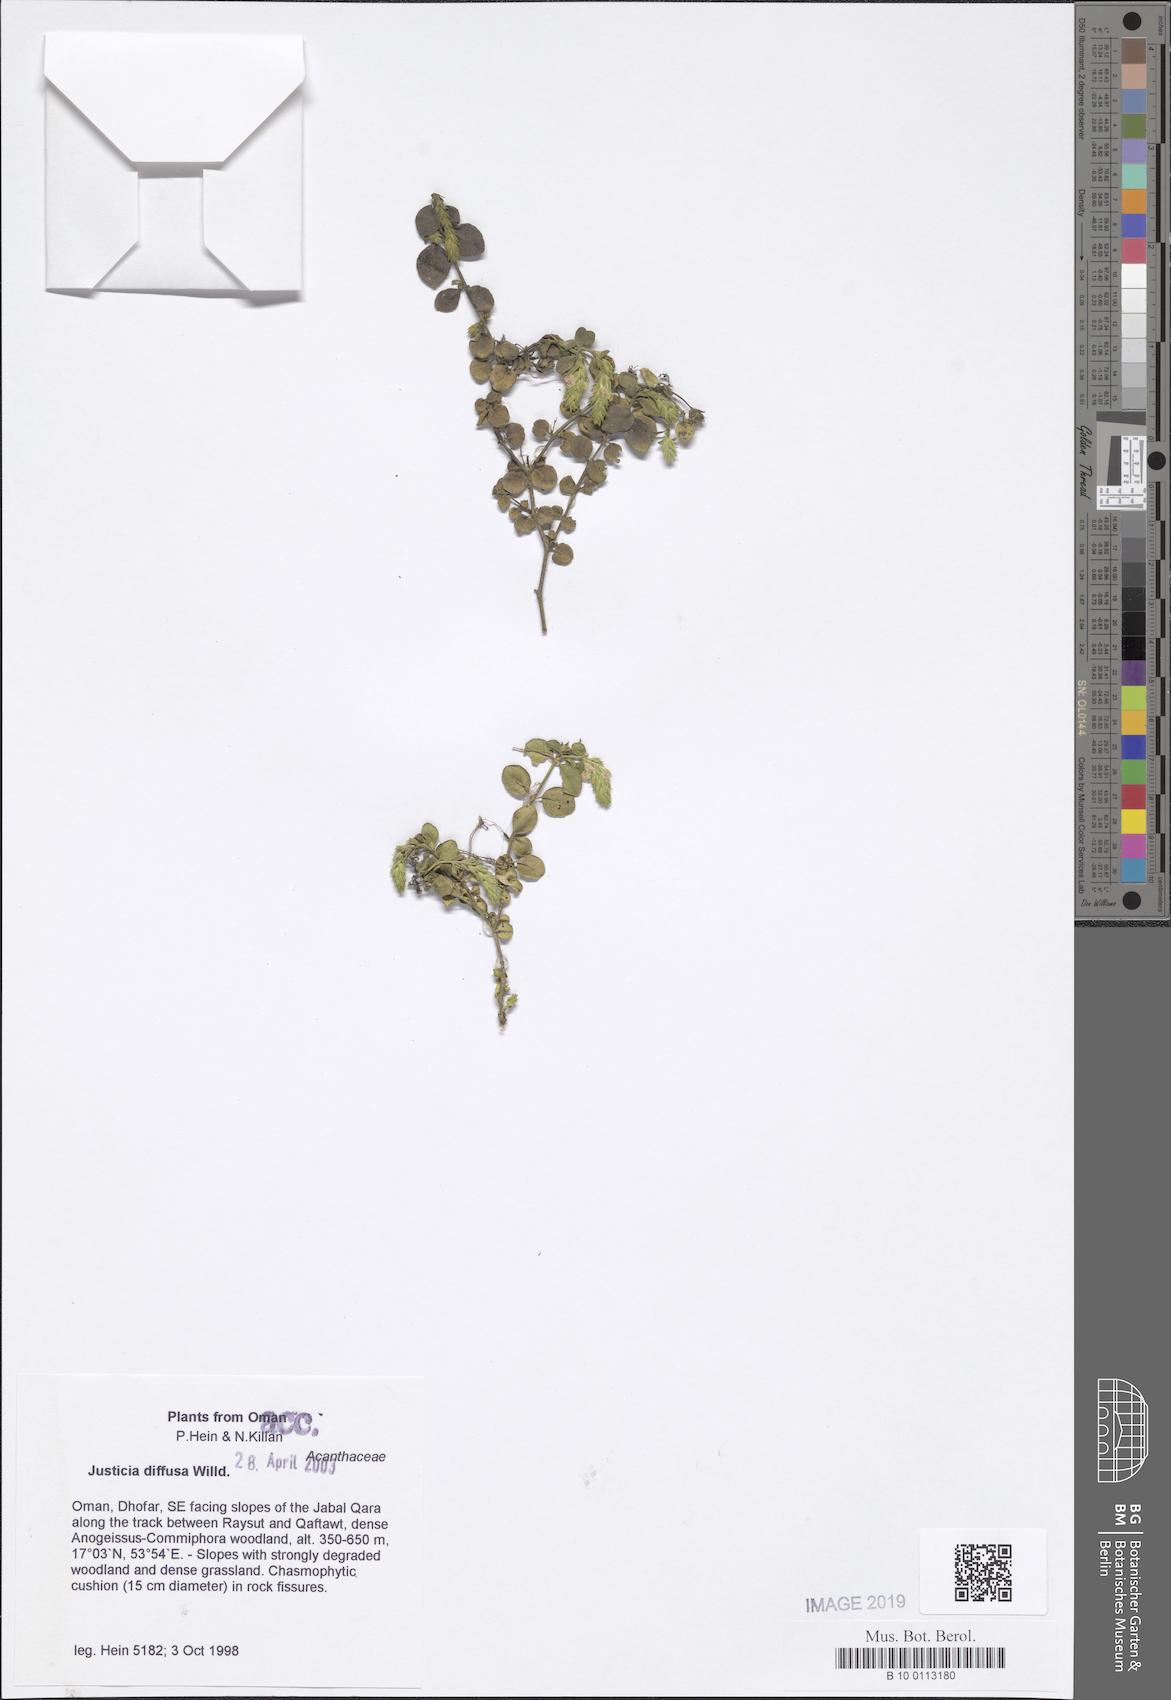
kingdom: Plantae
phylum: Tracheophyta
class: Magnoliopsida
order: Lamiales
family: Acanthaceae
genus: Rostellularia
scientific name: Rostellularia diffusa
